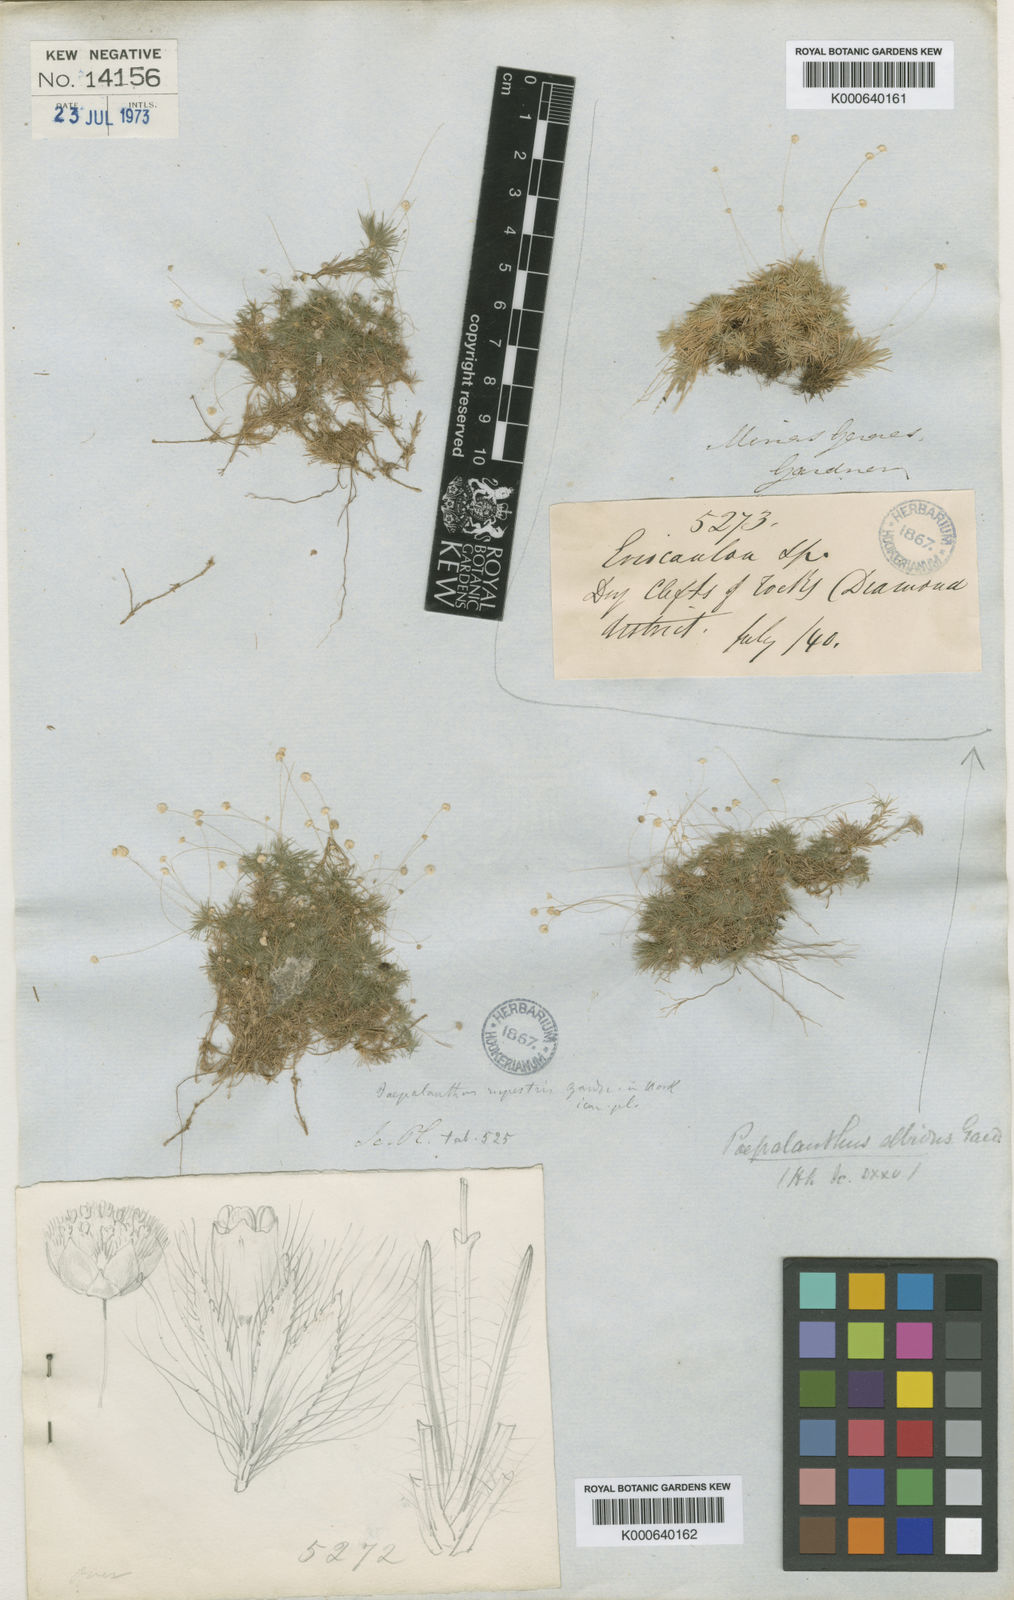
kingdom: Plantae
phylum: Tracheophyta
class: Liliopsida
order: Poales
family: Eriocaulaceae
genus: Paepalanthus
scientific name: Paepalanthus rupestris
